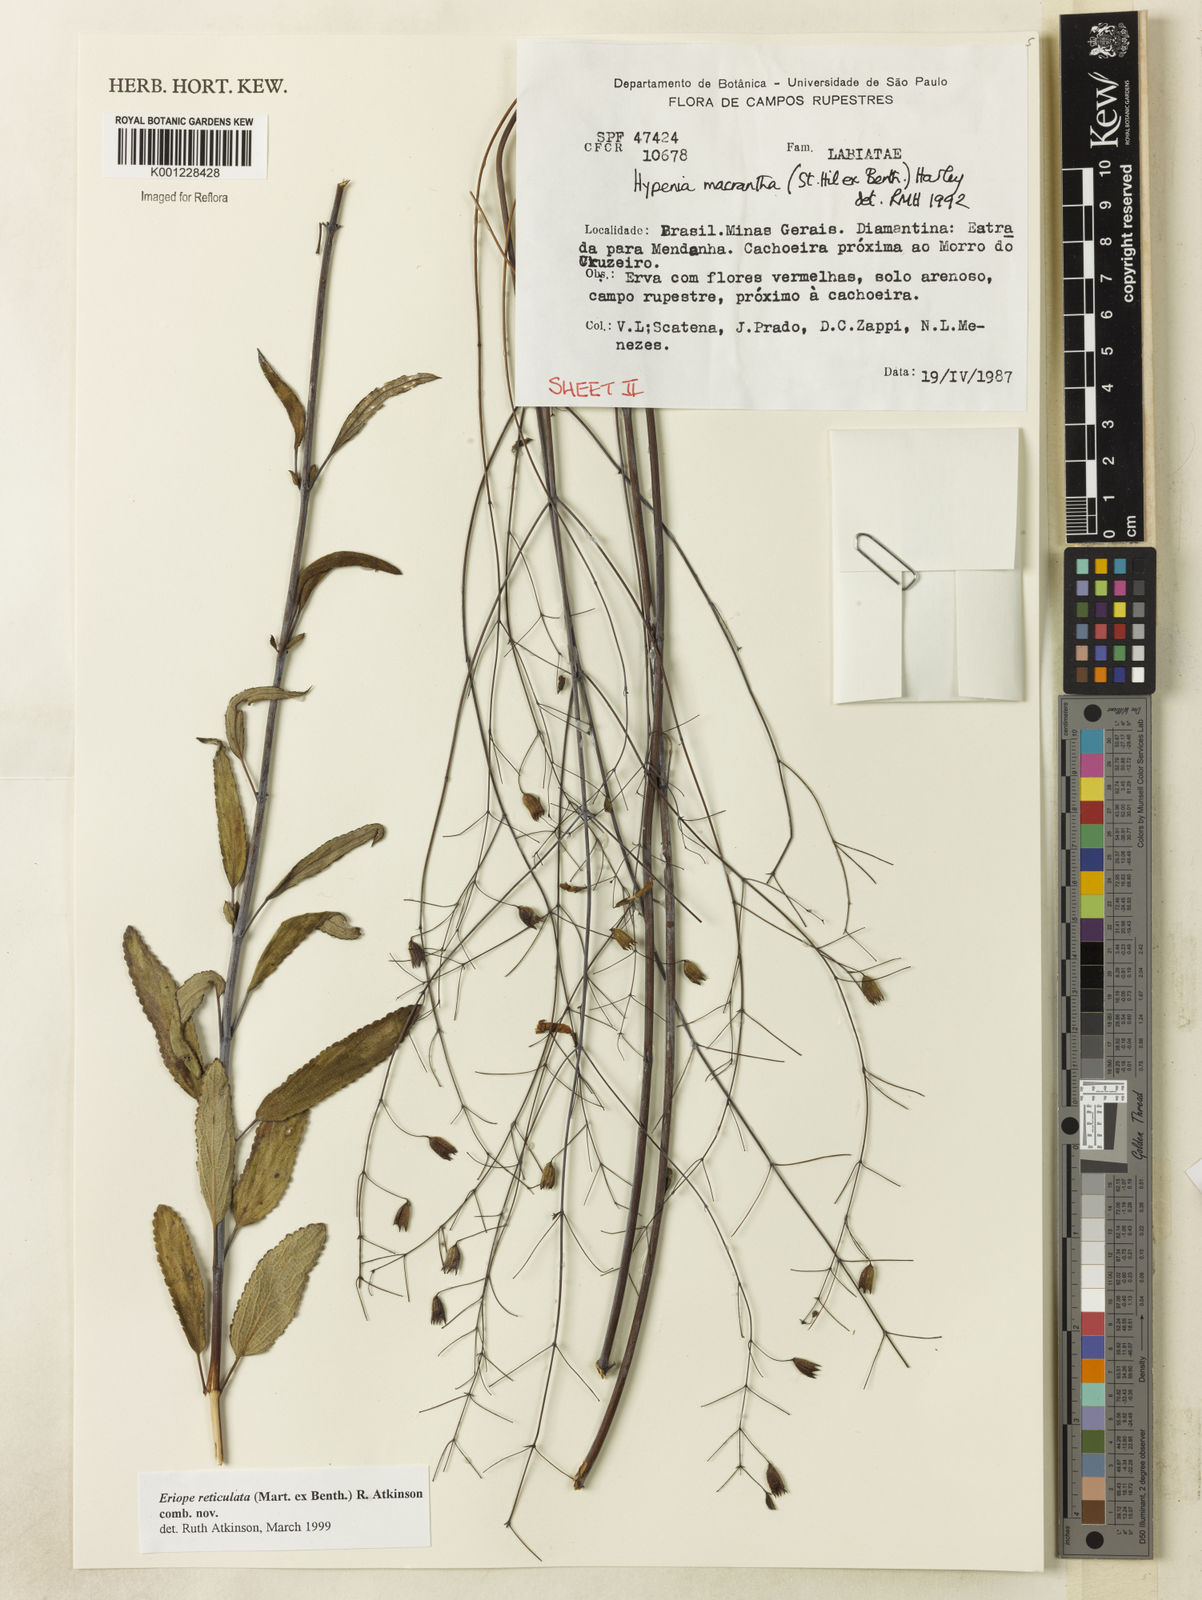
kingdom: Plantae
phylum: Tracheophyta
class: Magnoliopsida
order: Lamiales
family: Lamiaceae
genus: Hypenia
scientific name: Hypenia reticulata
